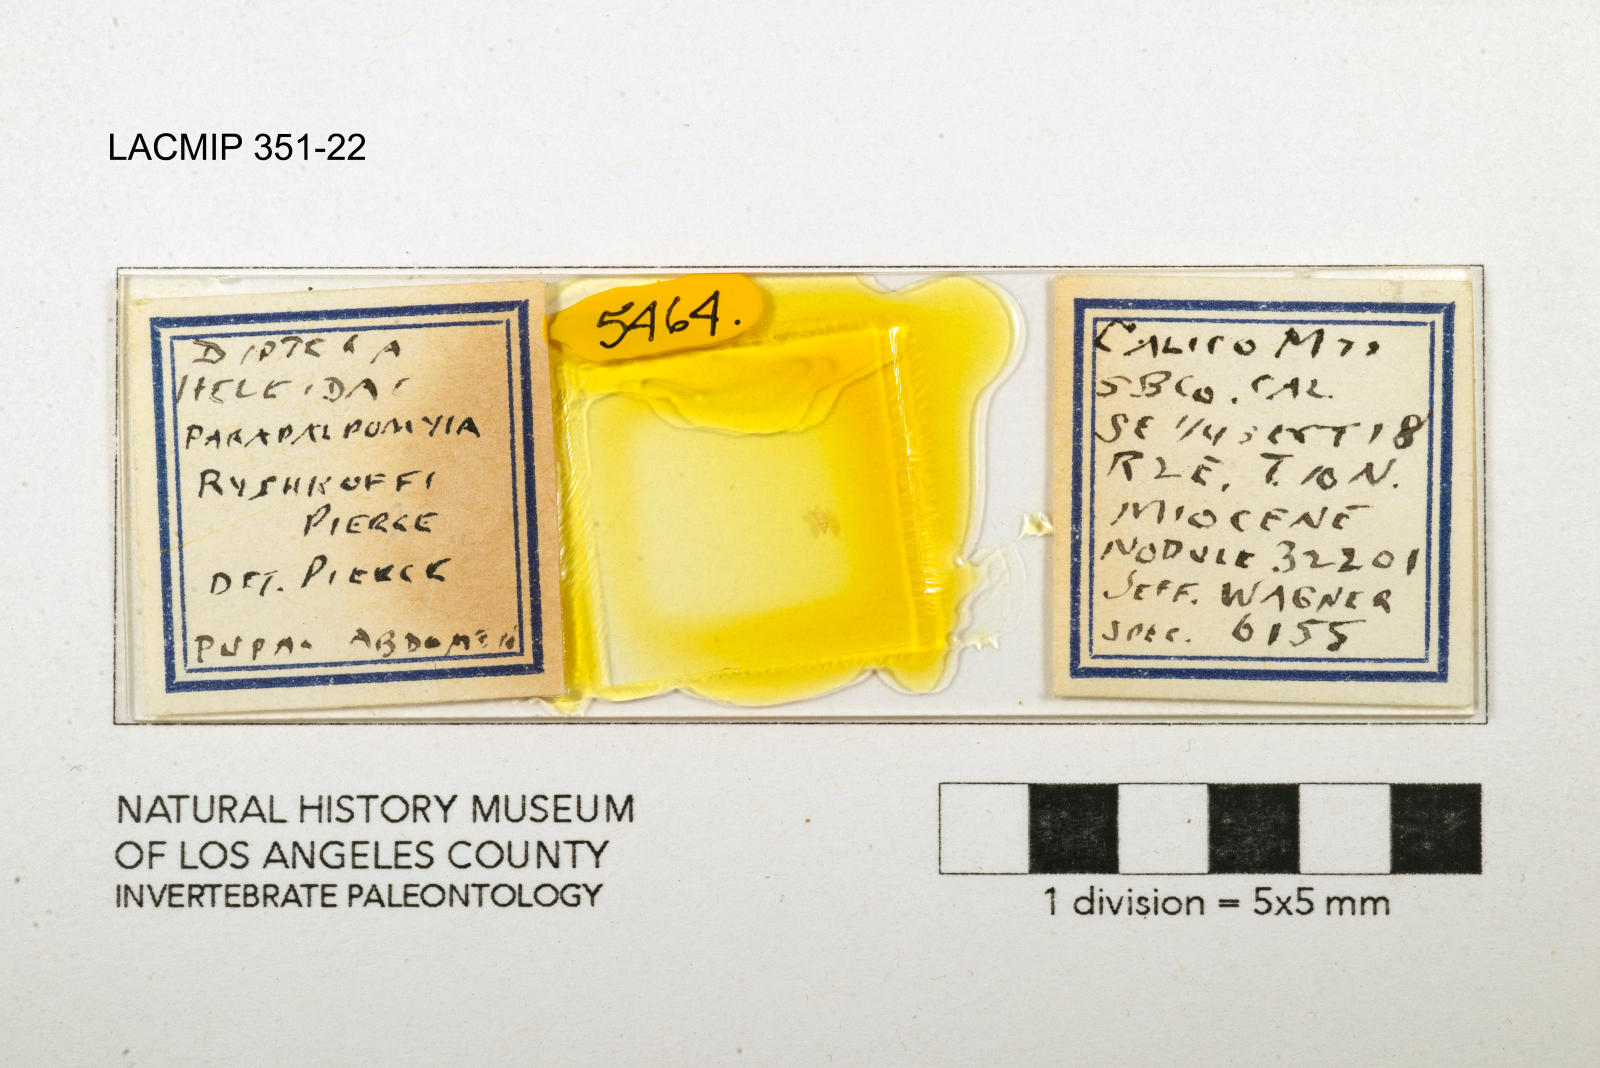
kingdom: Animalia
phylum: Arthropoda
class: Insecta
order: Diptera
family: Ceratopogonidae
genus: Palpomyia
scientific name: Palpomyia ryshkoffi
